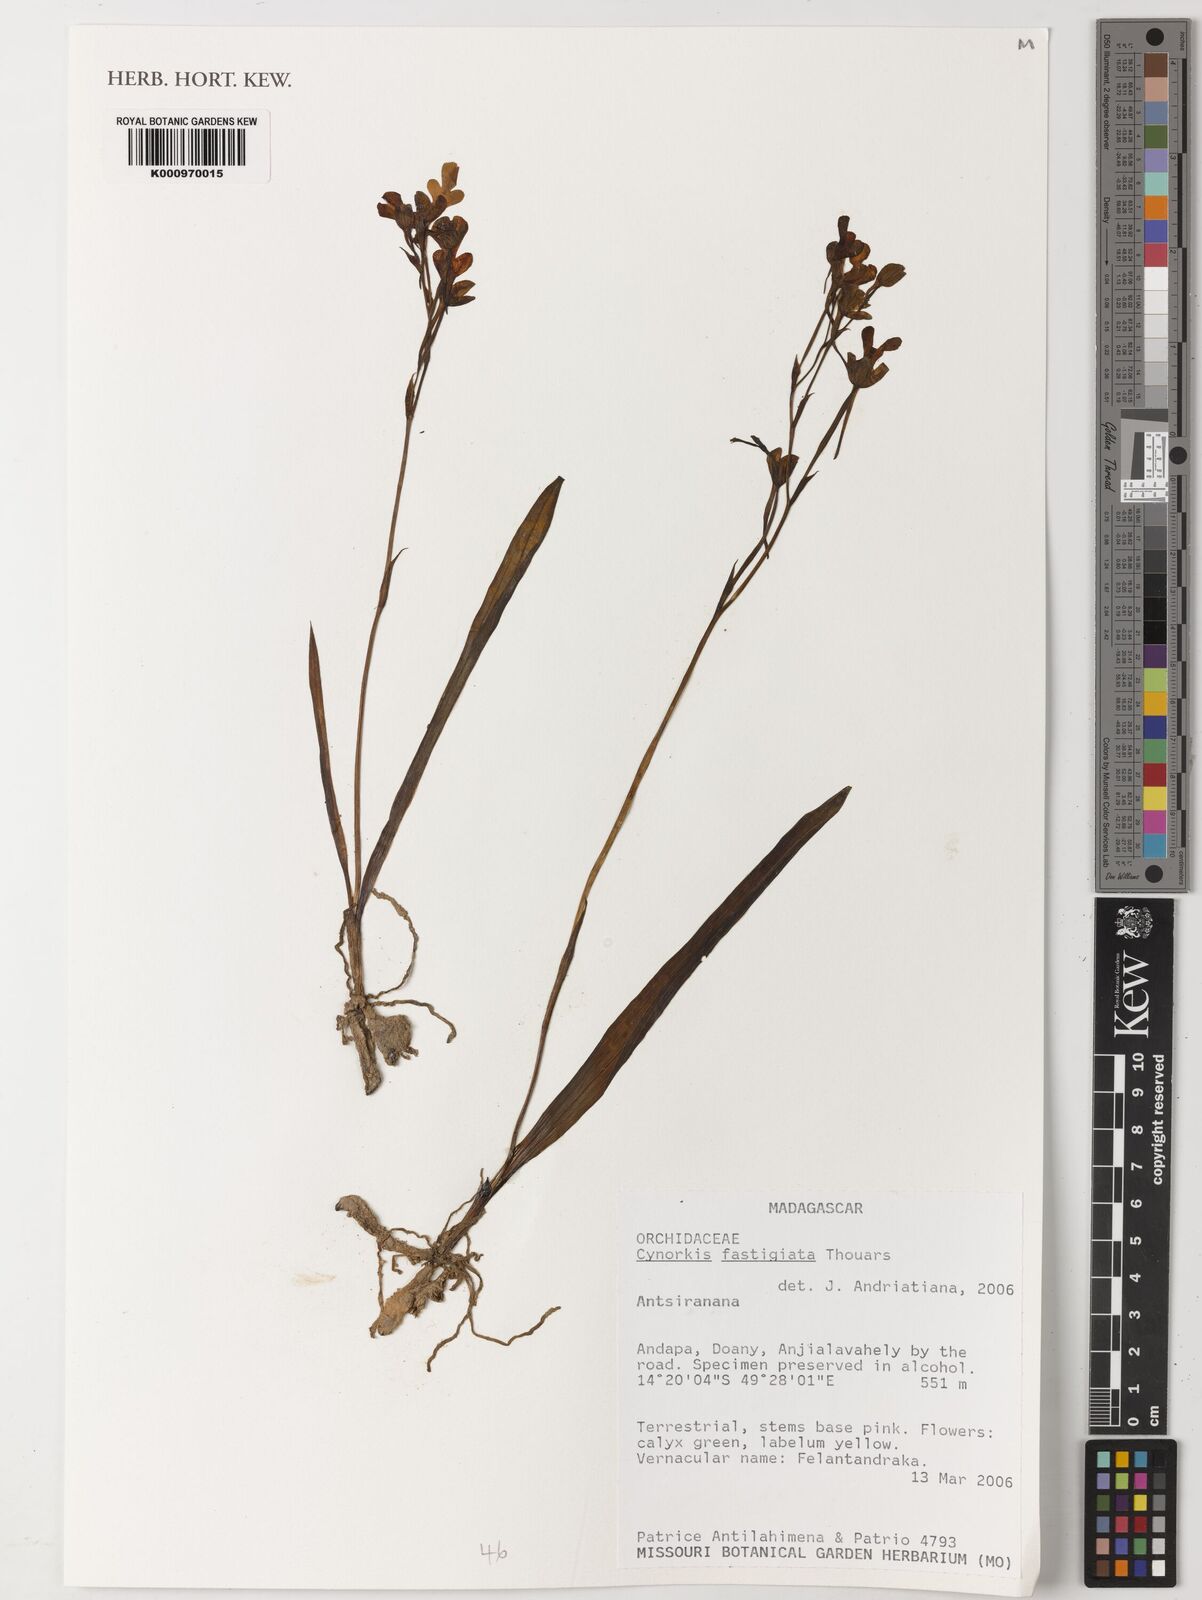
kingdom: Plantae
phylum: Tracheophyta
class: Liliopsida
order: Asparagales
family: Orchidaceae
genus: Cynorkis
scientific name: Cynorkis fastigiata
